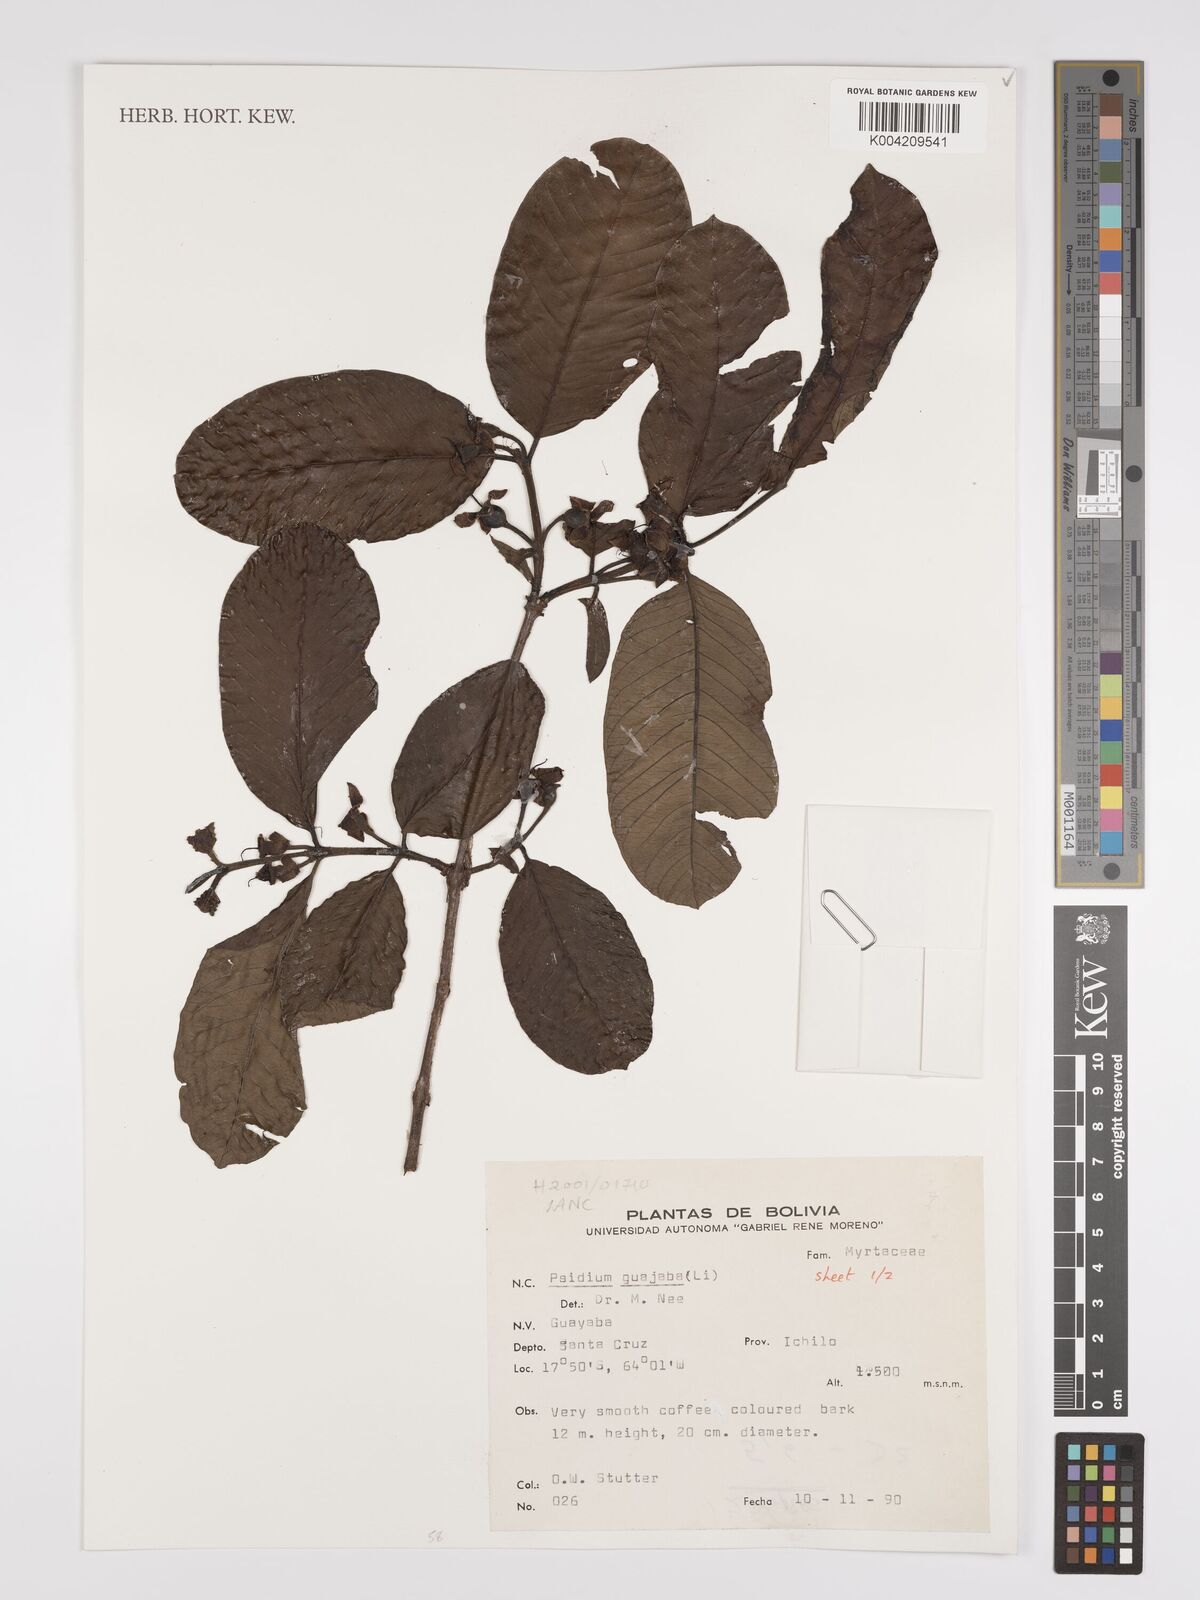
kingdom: Plantae
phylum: Tracheophyta
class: Magnoliopsida
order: Myrtales
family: Myrtaceae
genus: Psidium
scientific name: Psidium guajava
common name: Guava
